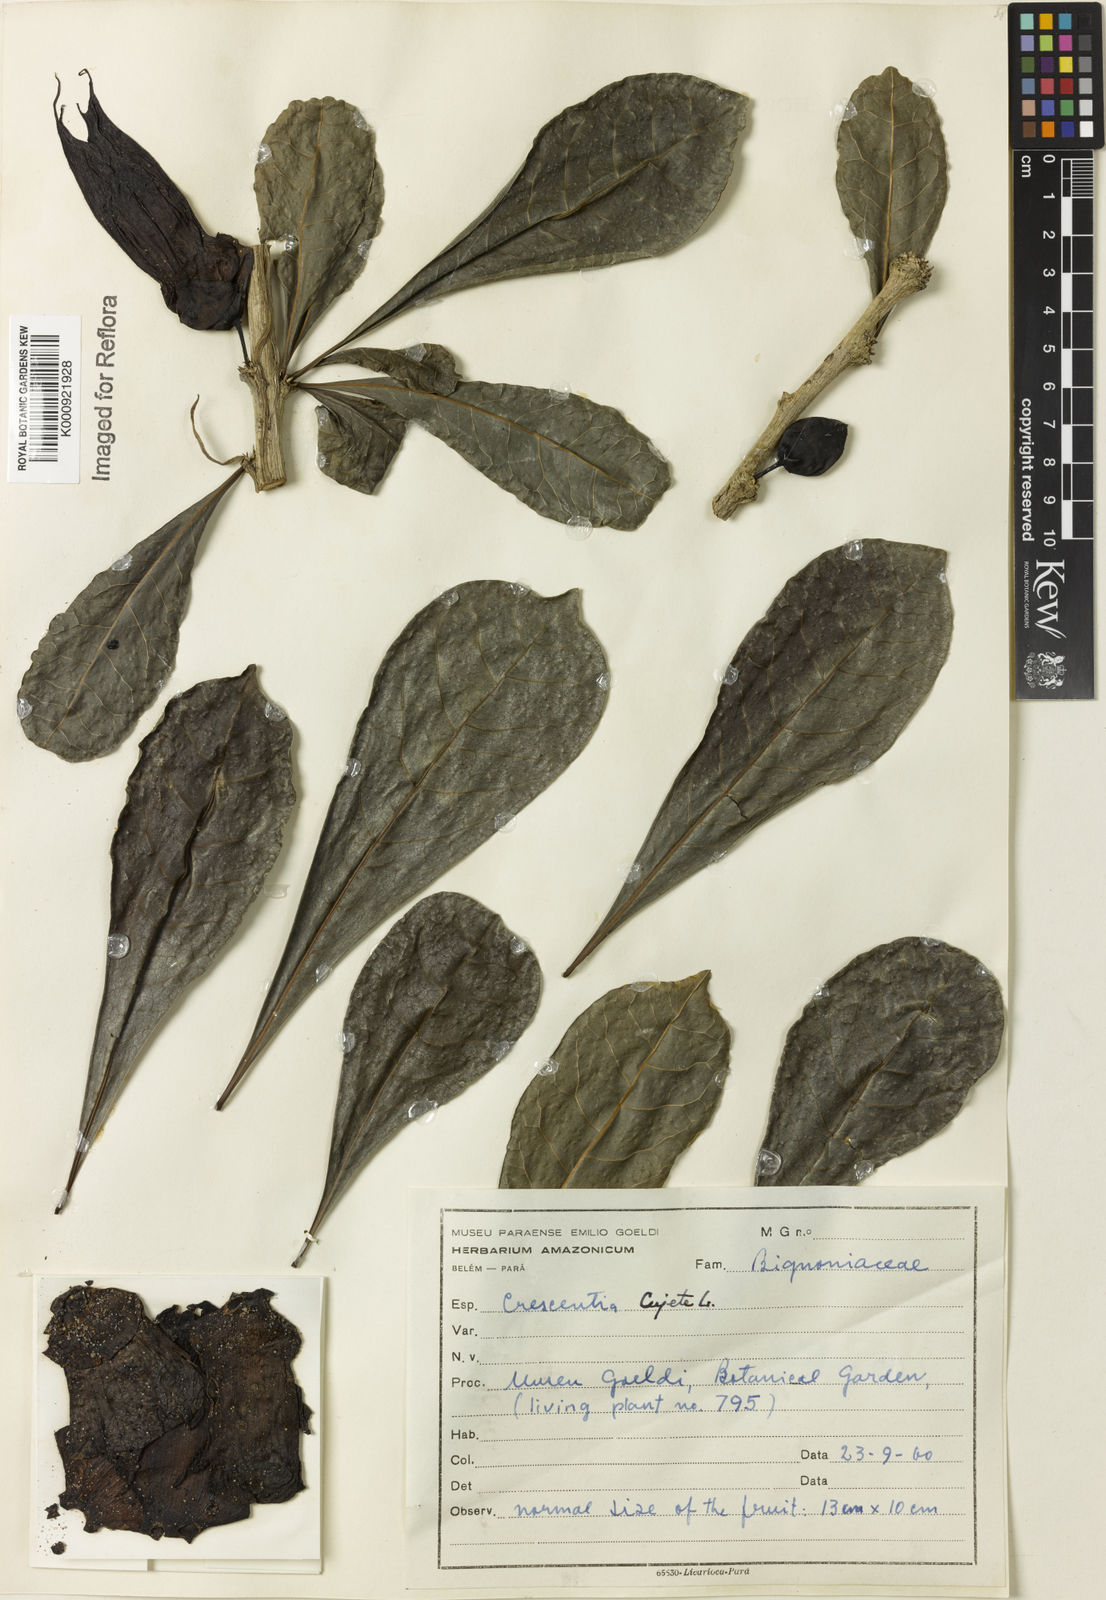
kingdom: Plantae
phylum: Tracheophyta
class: Magnoliopsida
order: Lamiales
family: Bignoniaceae
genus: Crescentia
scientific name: Crescentia cujete
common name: Calabash
